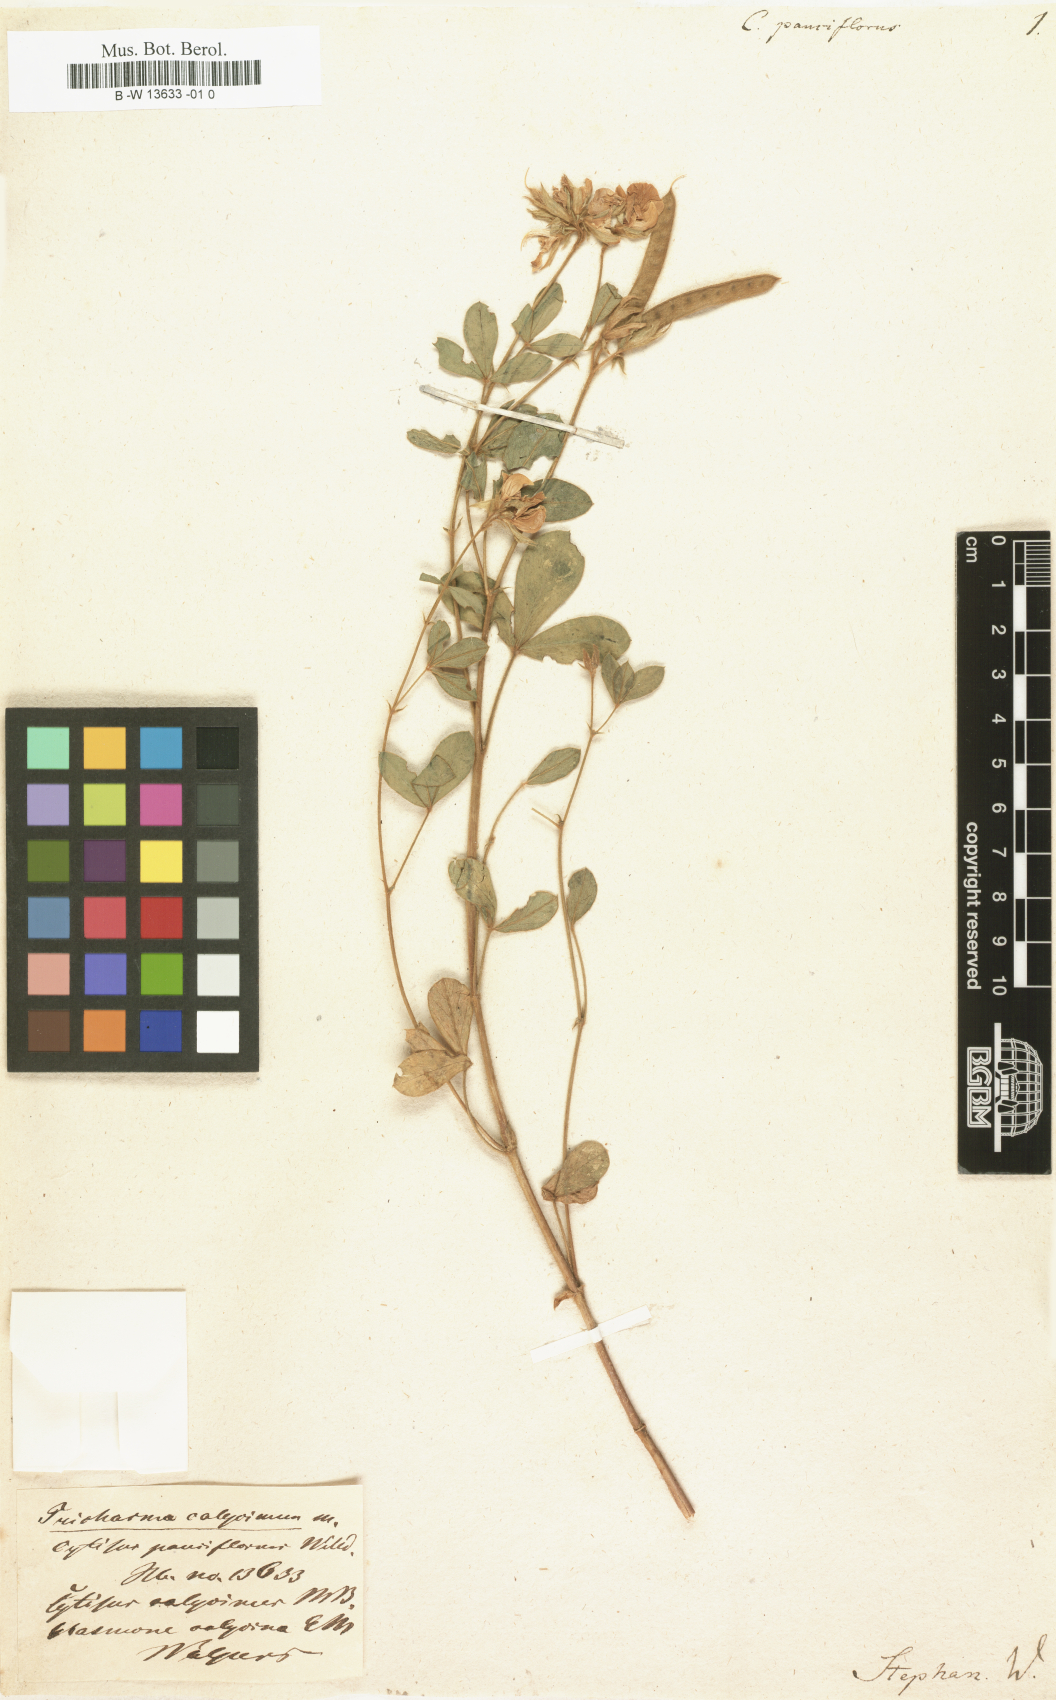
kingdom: Plantae
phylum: Tracheophyta
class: Magnoliopsida
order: Fabales
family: Fabaceae
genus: Argyrolobium
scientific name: Argyrolobium biebersteinii
